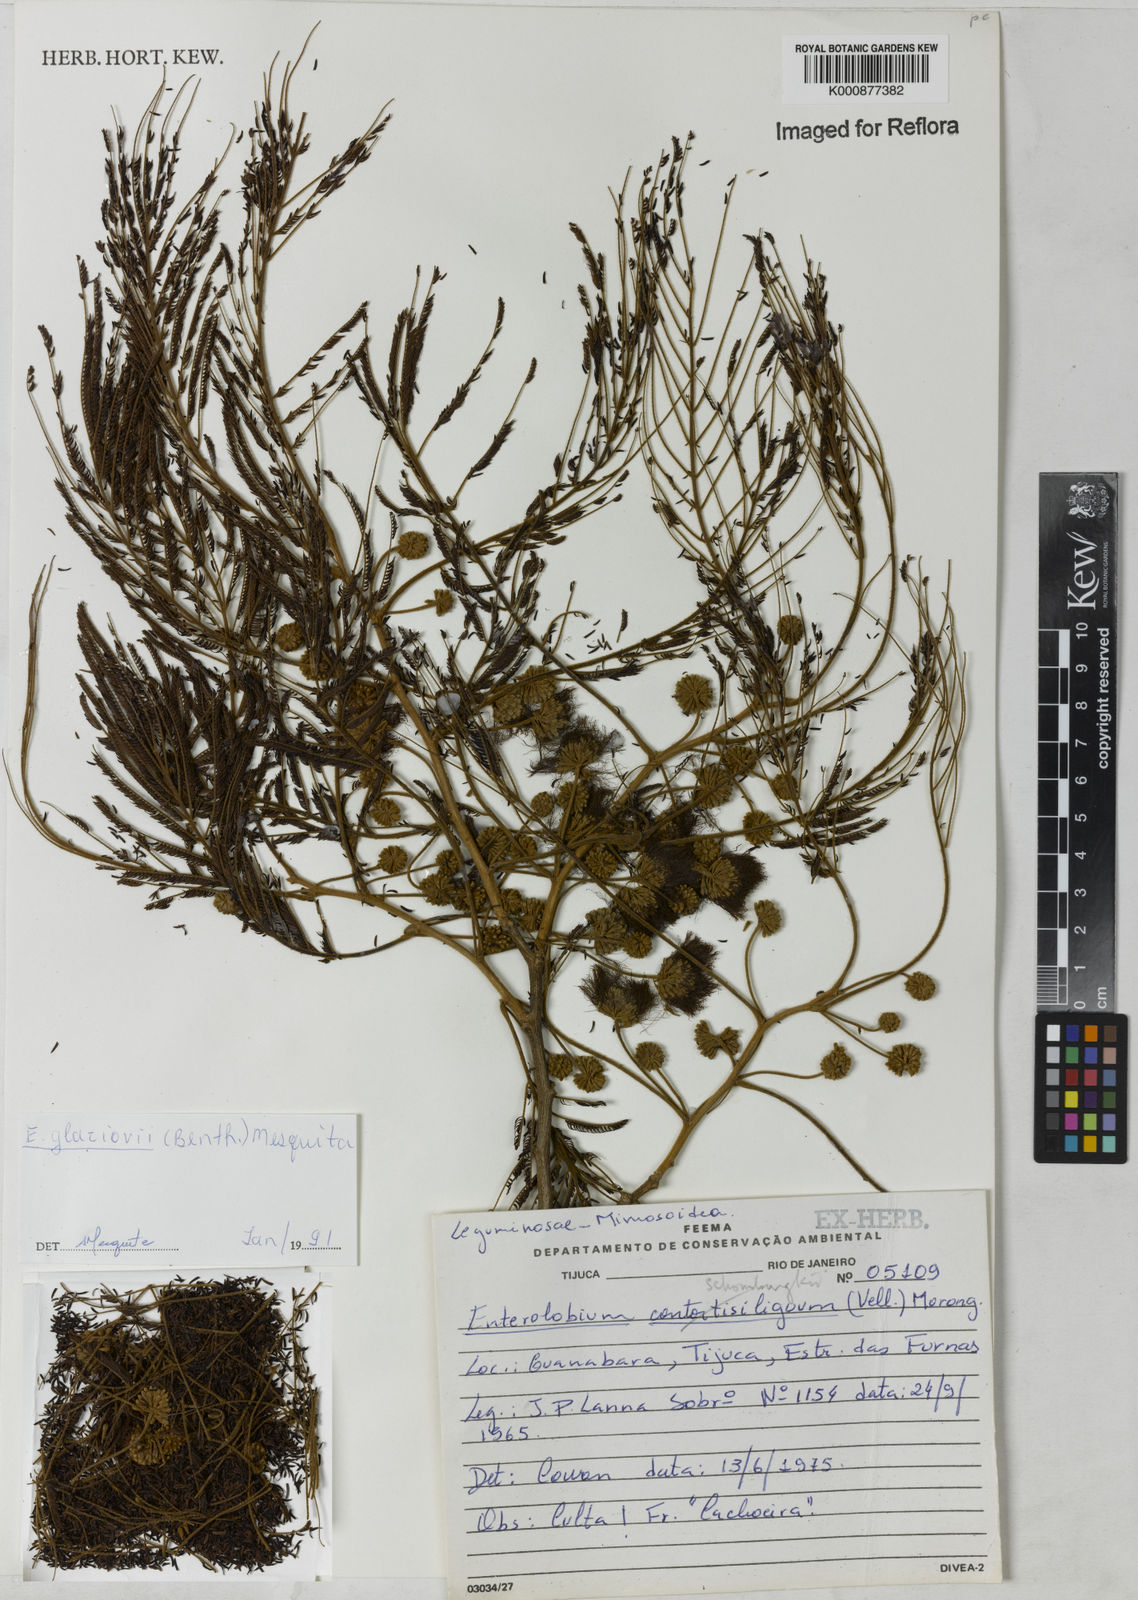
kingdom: Plantae
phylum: Tracheophyta
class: Magnoliopsida
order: Fabales
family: Fabaceae
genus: Enterolobium
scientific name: Enterolobium glaziovii
